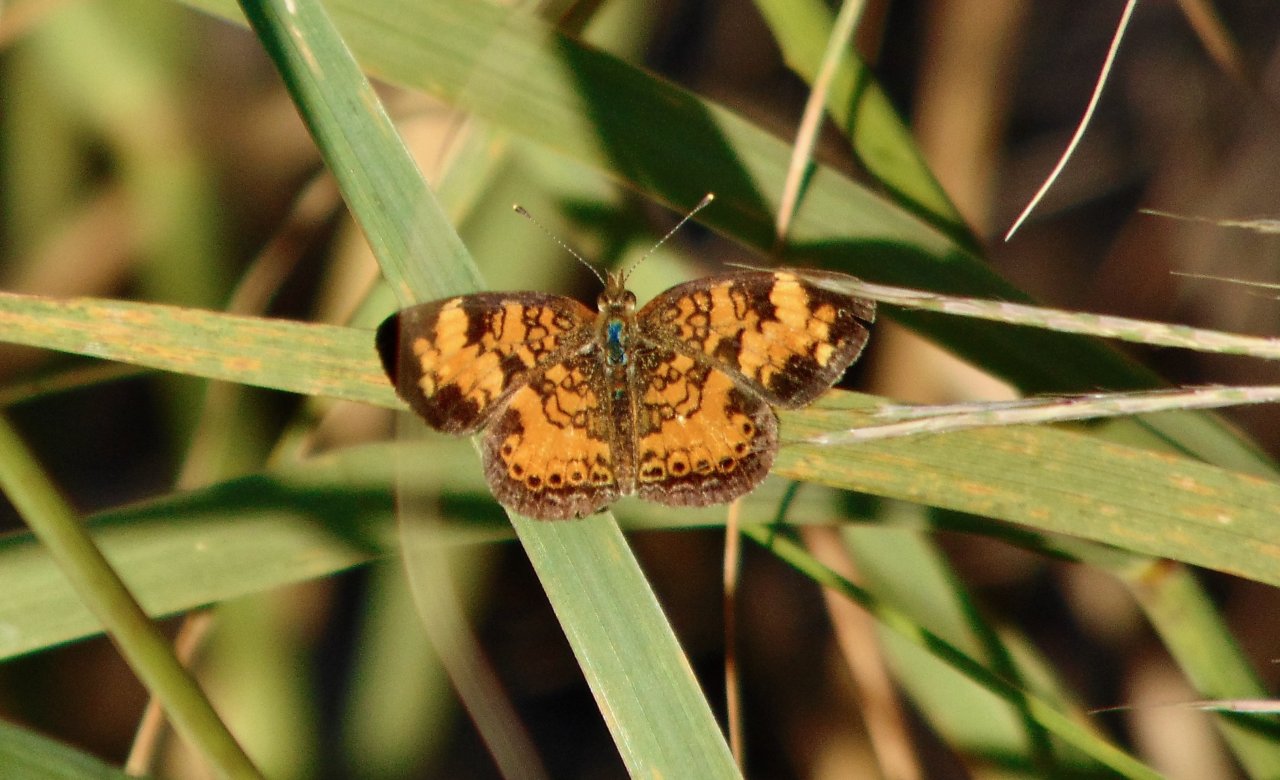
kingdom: Animalia
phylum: Arthropoda
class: Insecta
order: Lepidoptera
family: Nymphalidae
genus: Phyciodes
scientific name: Phyciodes tharos
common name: Pearl Crescent
